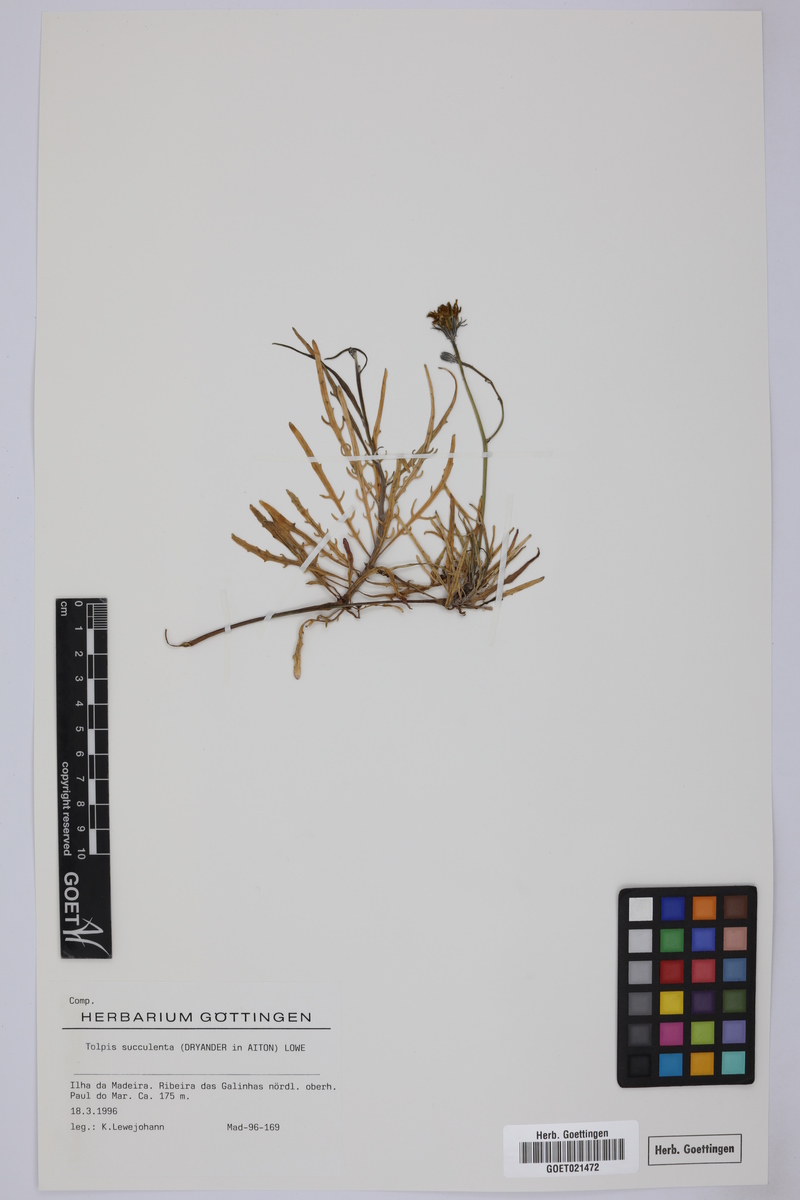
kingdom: Plantae
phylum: Tracheophyta
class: Magnoliopsida
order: Asterales
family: Asteraceae
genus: Tolpis
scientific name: Tolpis succulenta
